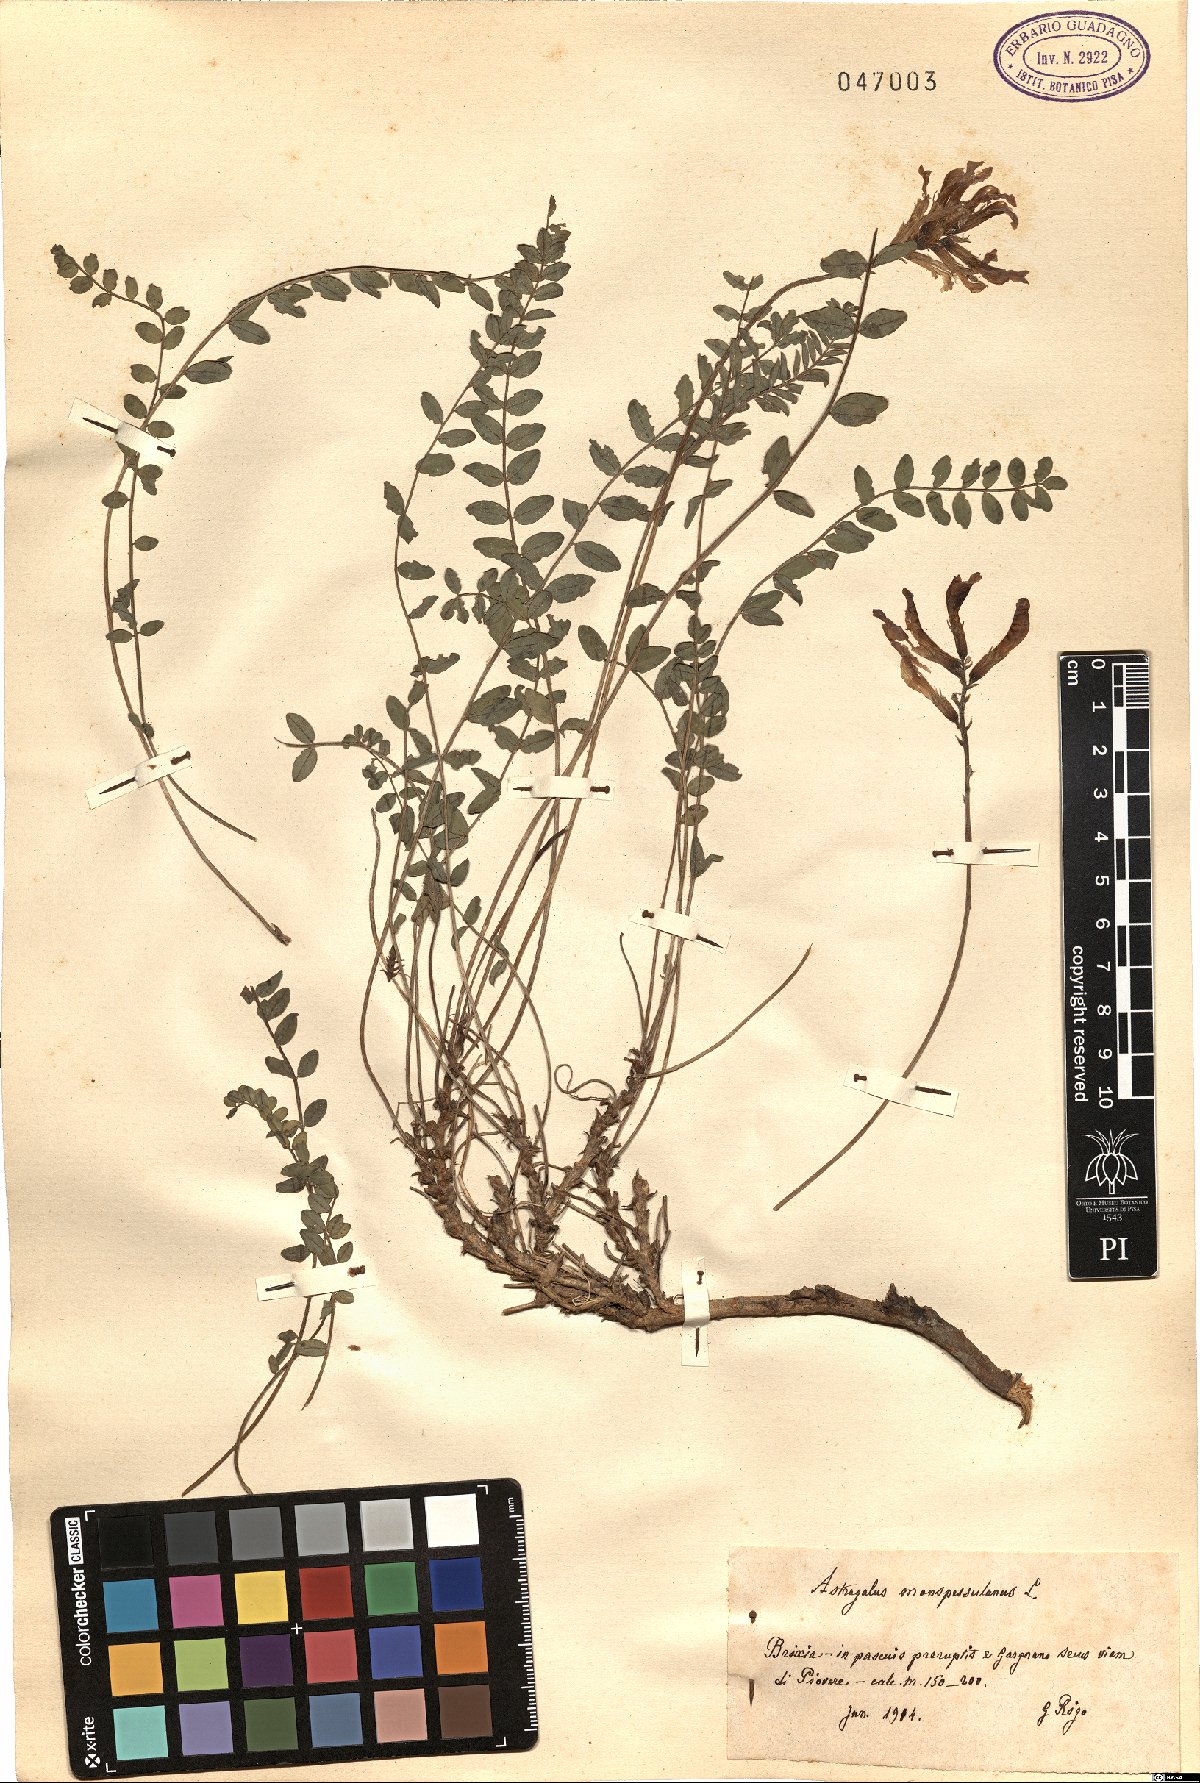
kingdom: Plantae
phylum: Tracheophyta
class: Magnoliopsida
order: Fabales
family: Fabaceae
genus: Astragalus
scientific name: Astragalus monspessulanus
